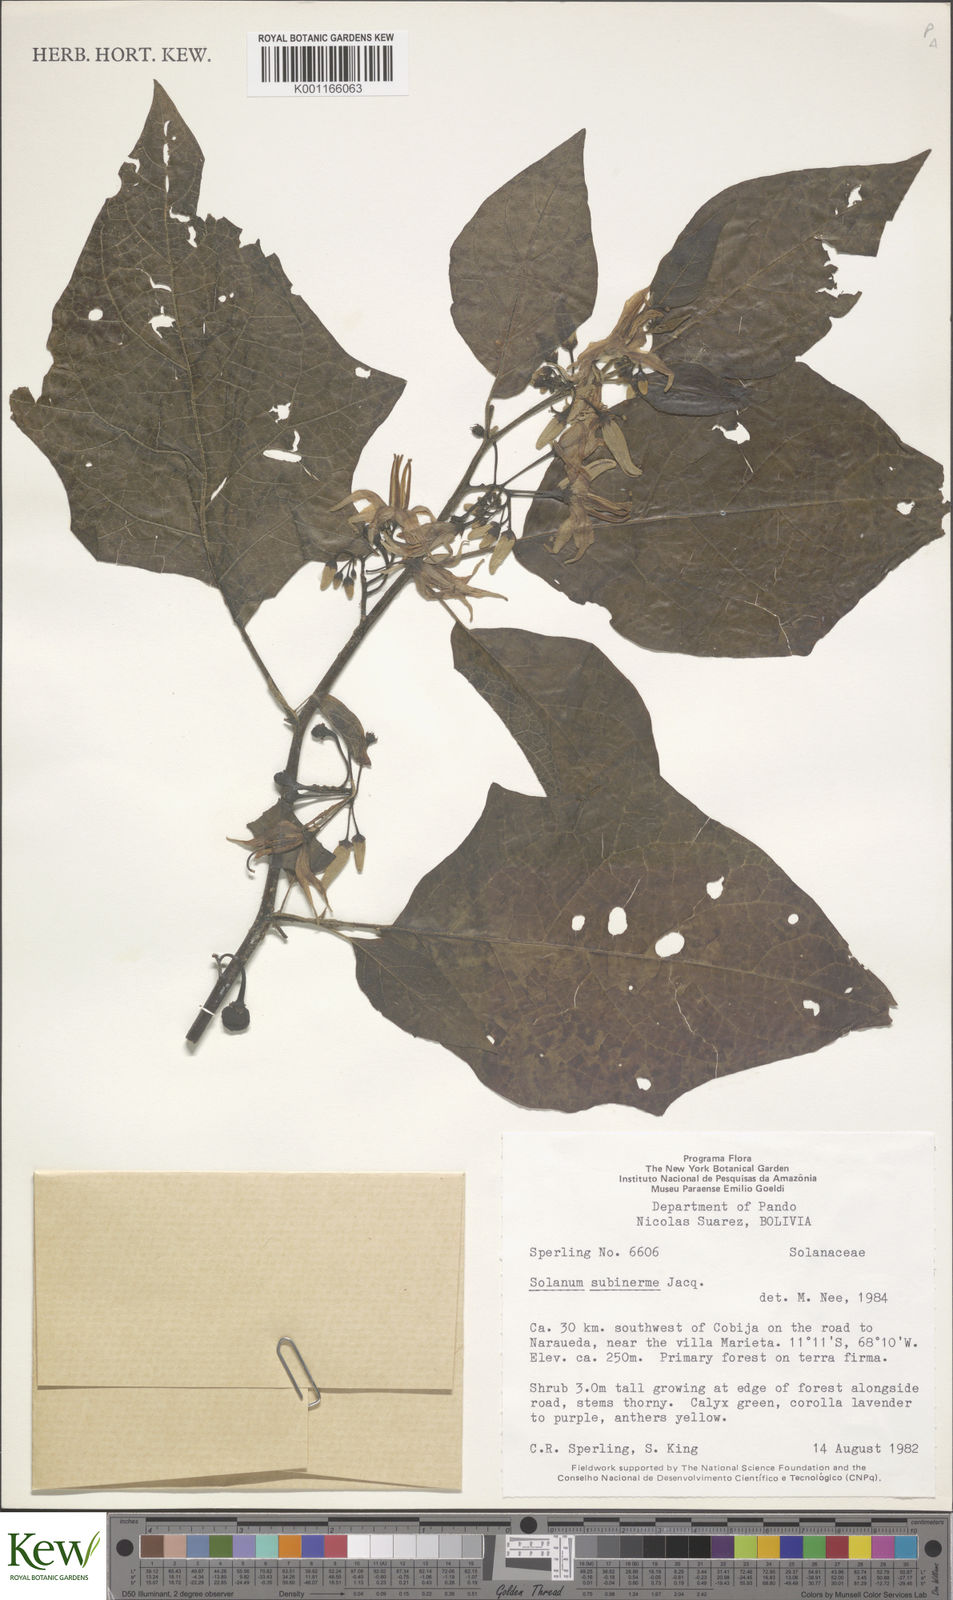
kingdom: Plantae
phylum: Tracheophyta
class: Magnoliopsida
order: Solanales
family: Solanaceae
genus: Solanum
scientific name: Solanum subinerme
